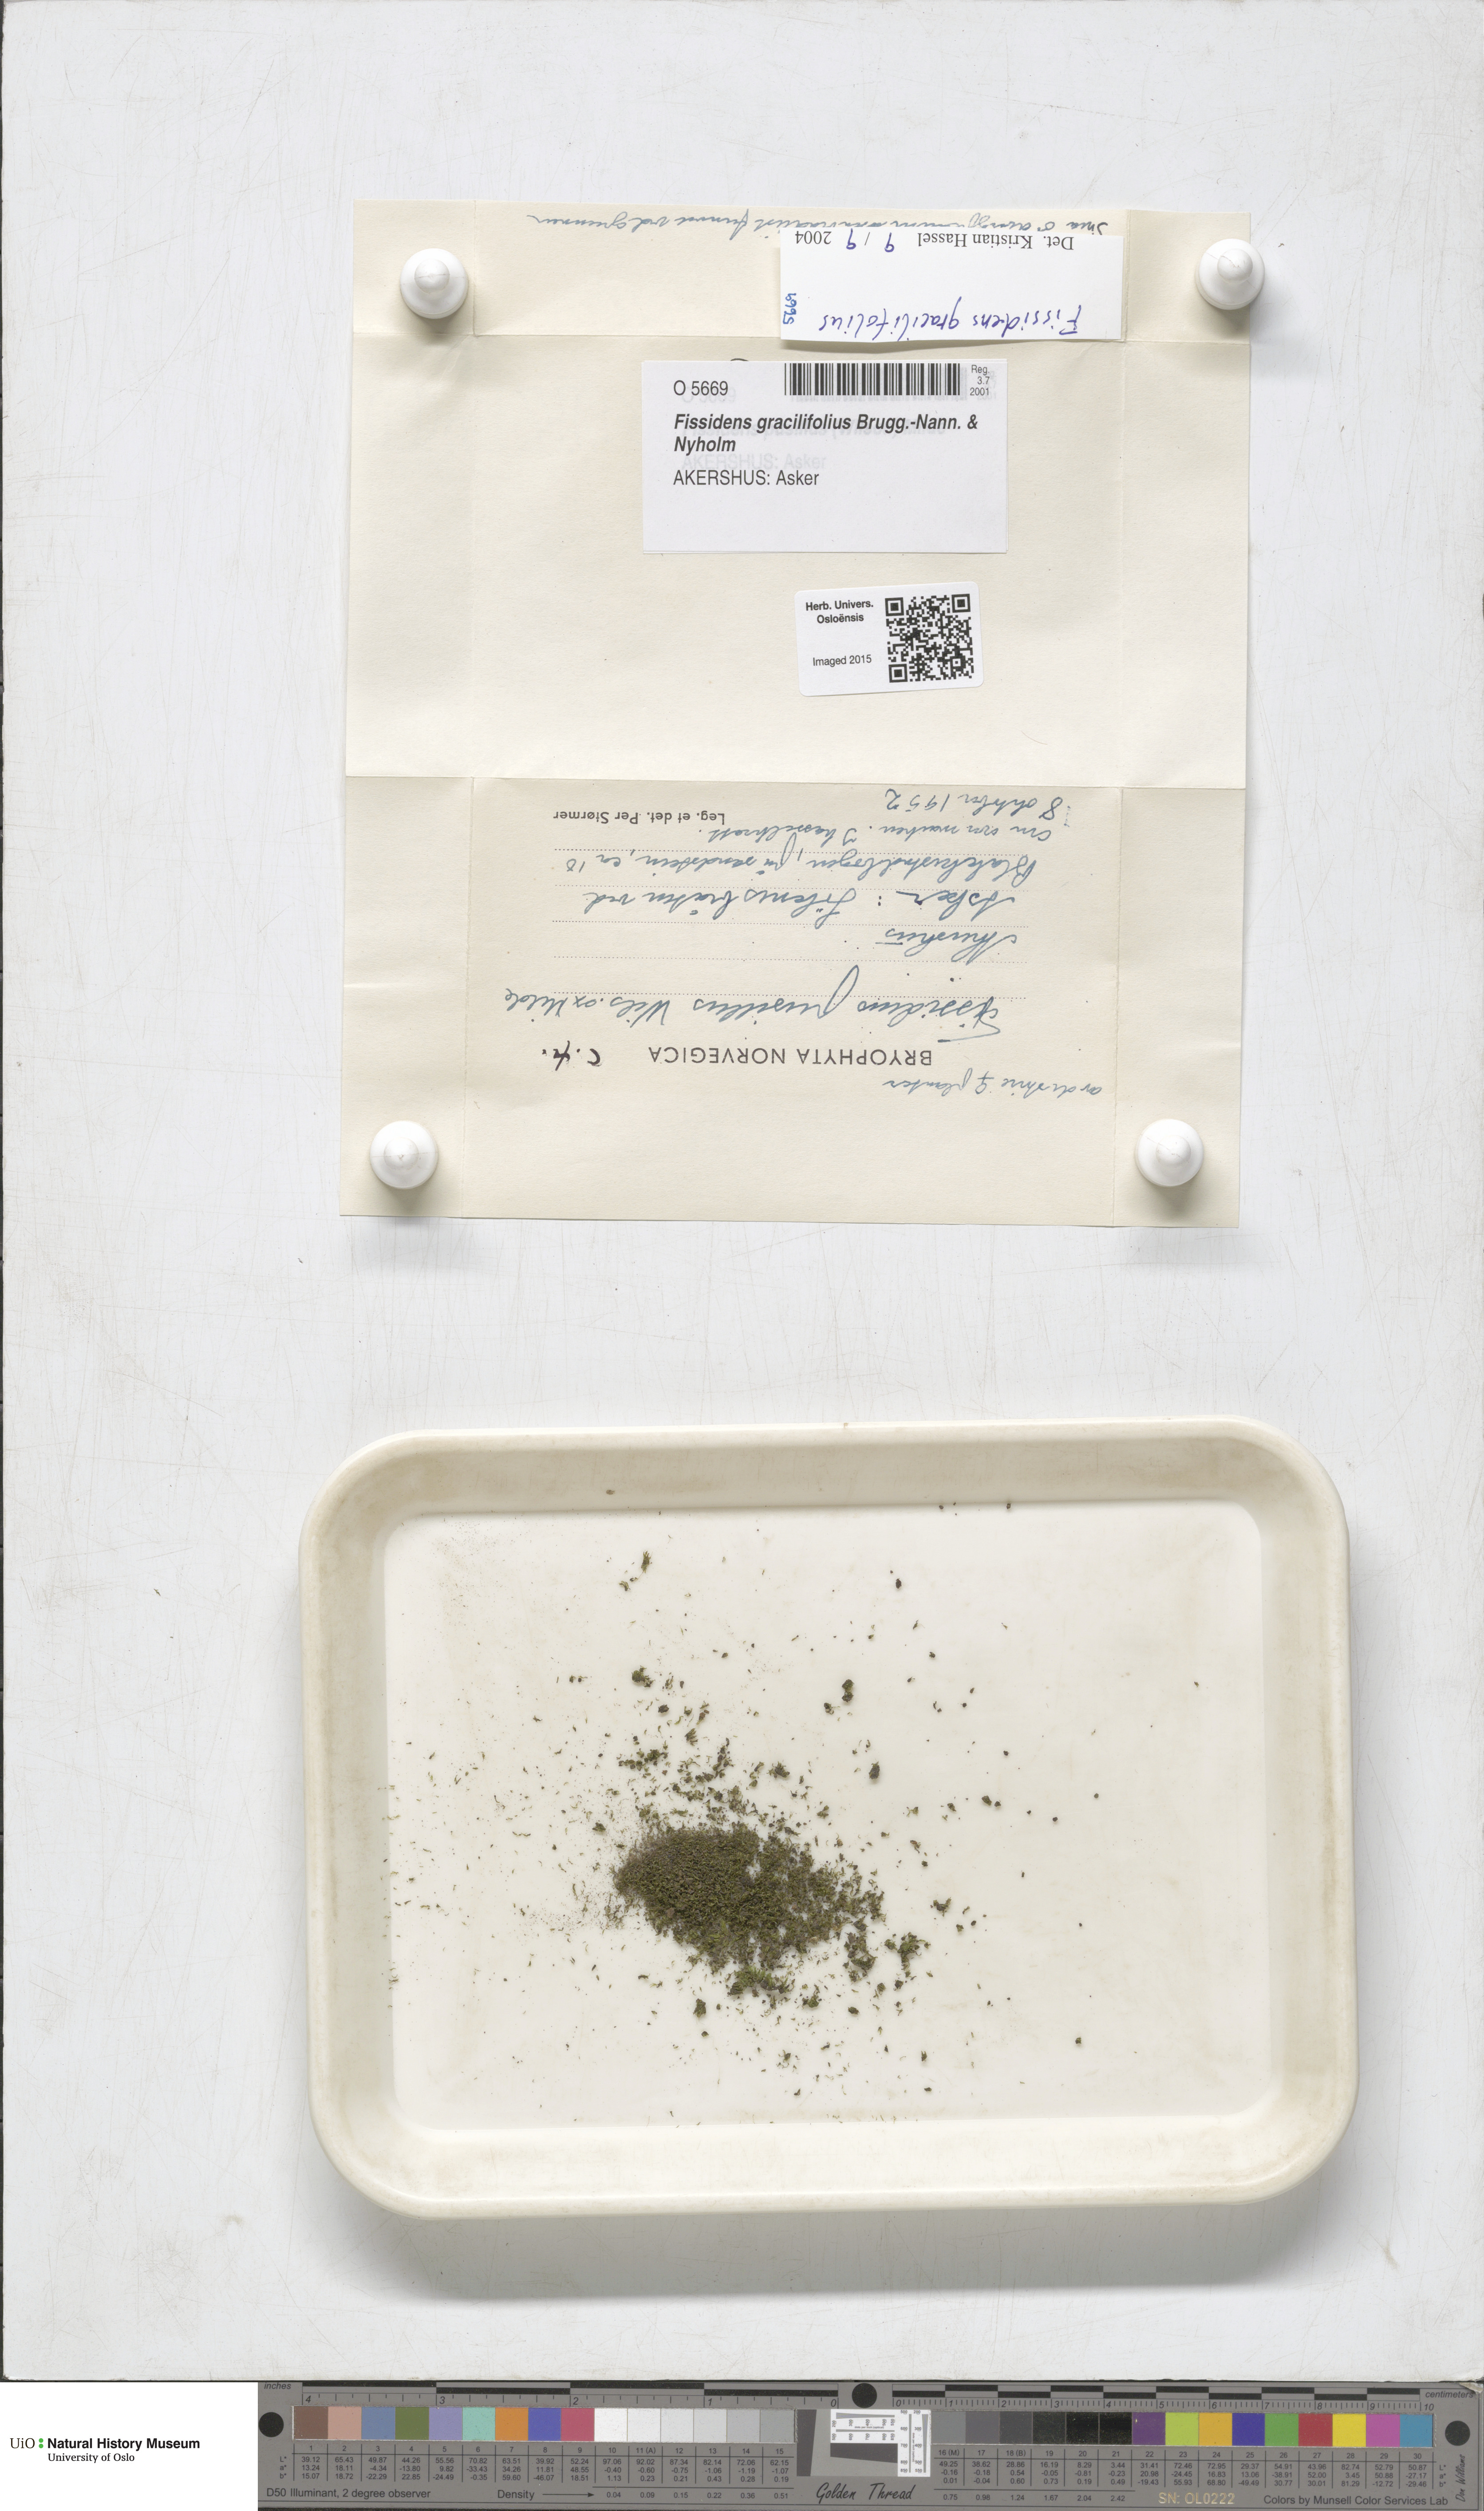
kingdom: Plantae
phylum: Bryophyta
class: Bryopsida
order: Dicranales
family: Fissidentaceae
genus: Fissidens
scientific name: Fissidens gracilifolius
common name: Narrow-leaved pocket-moss
